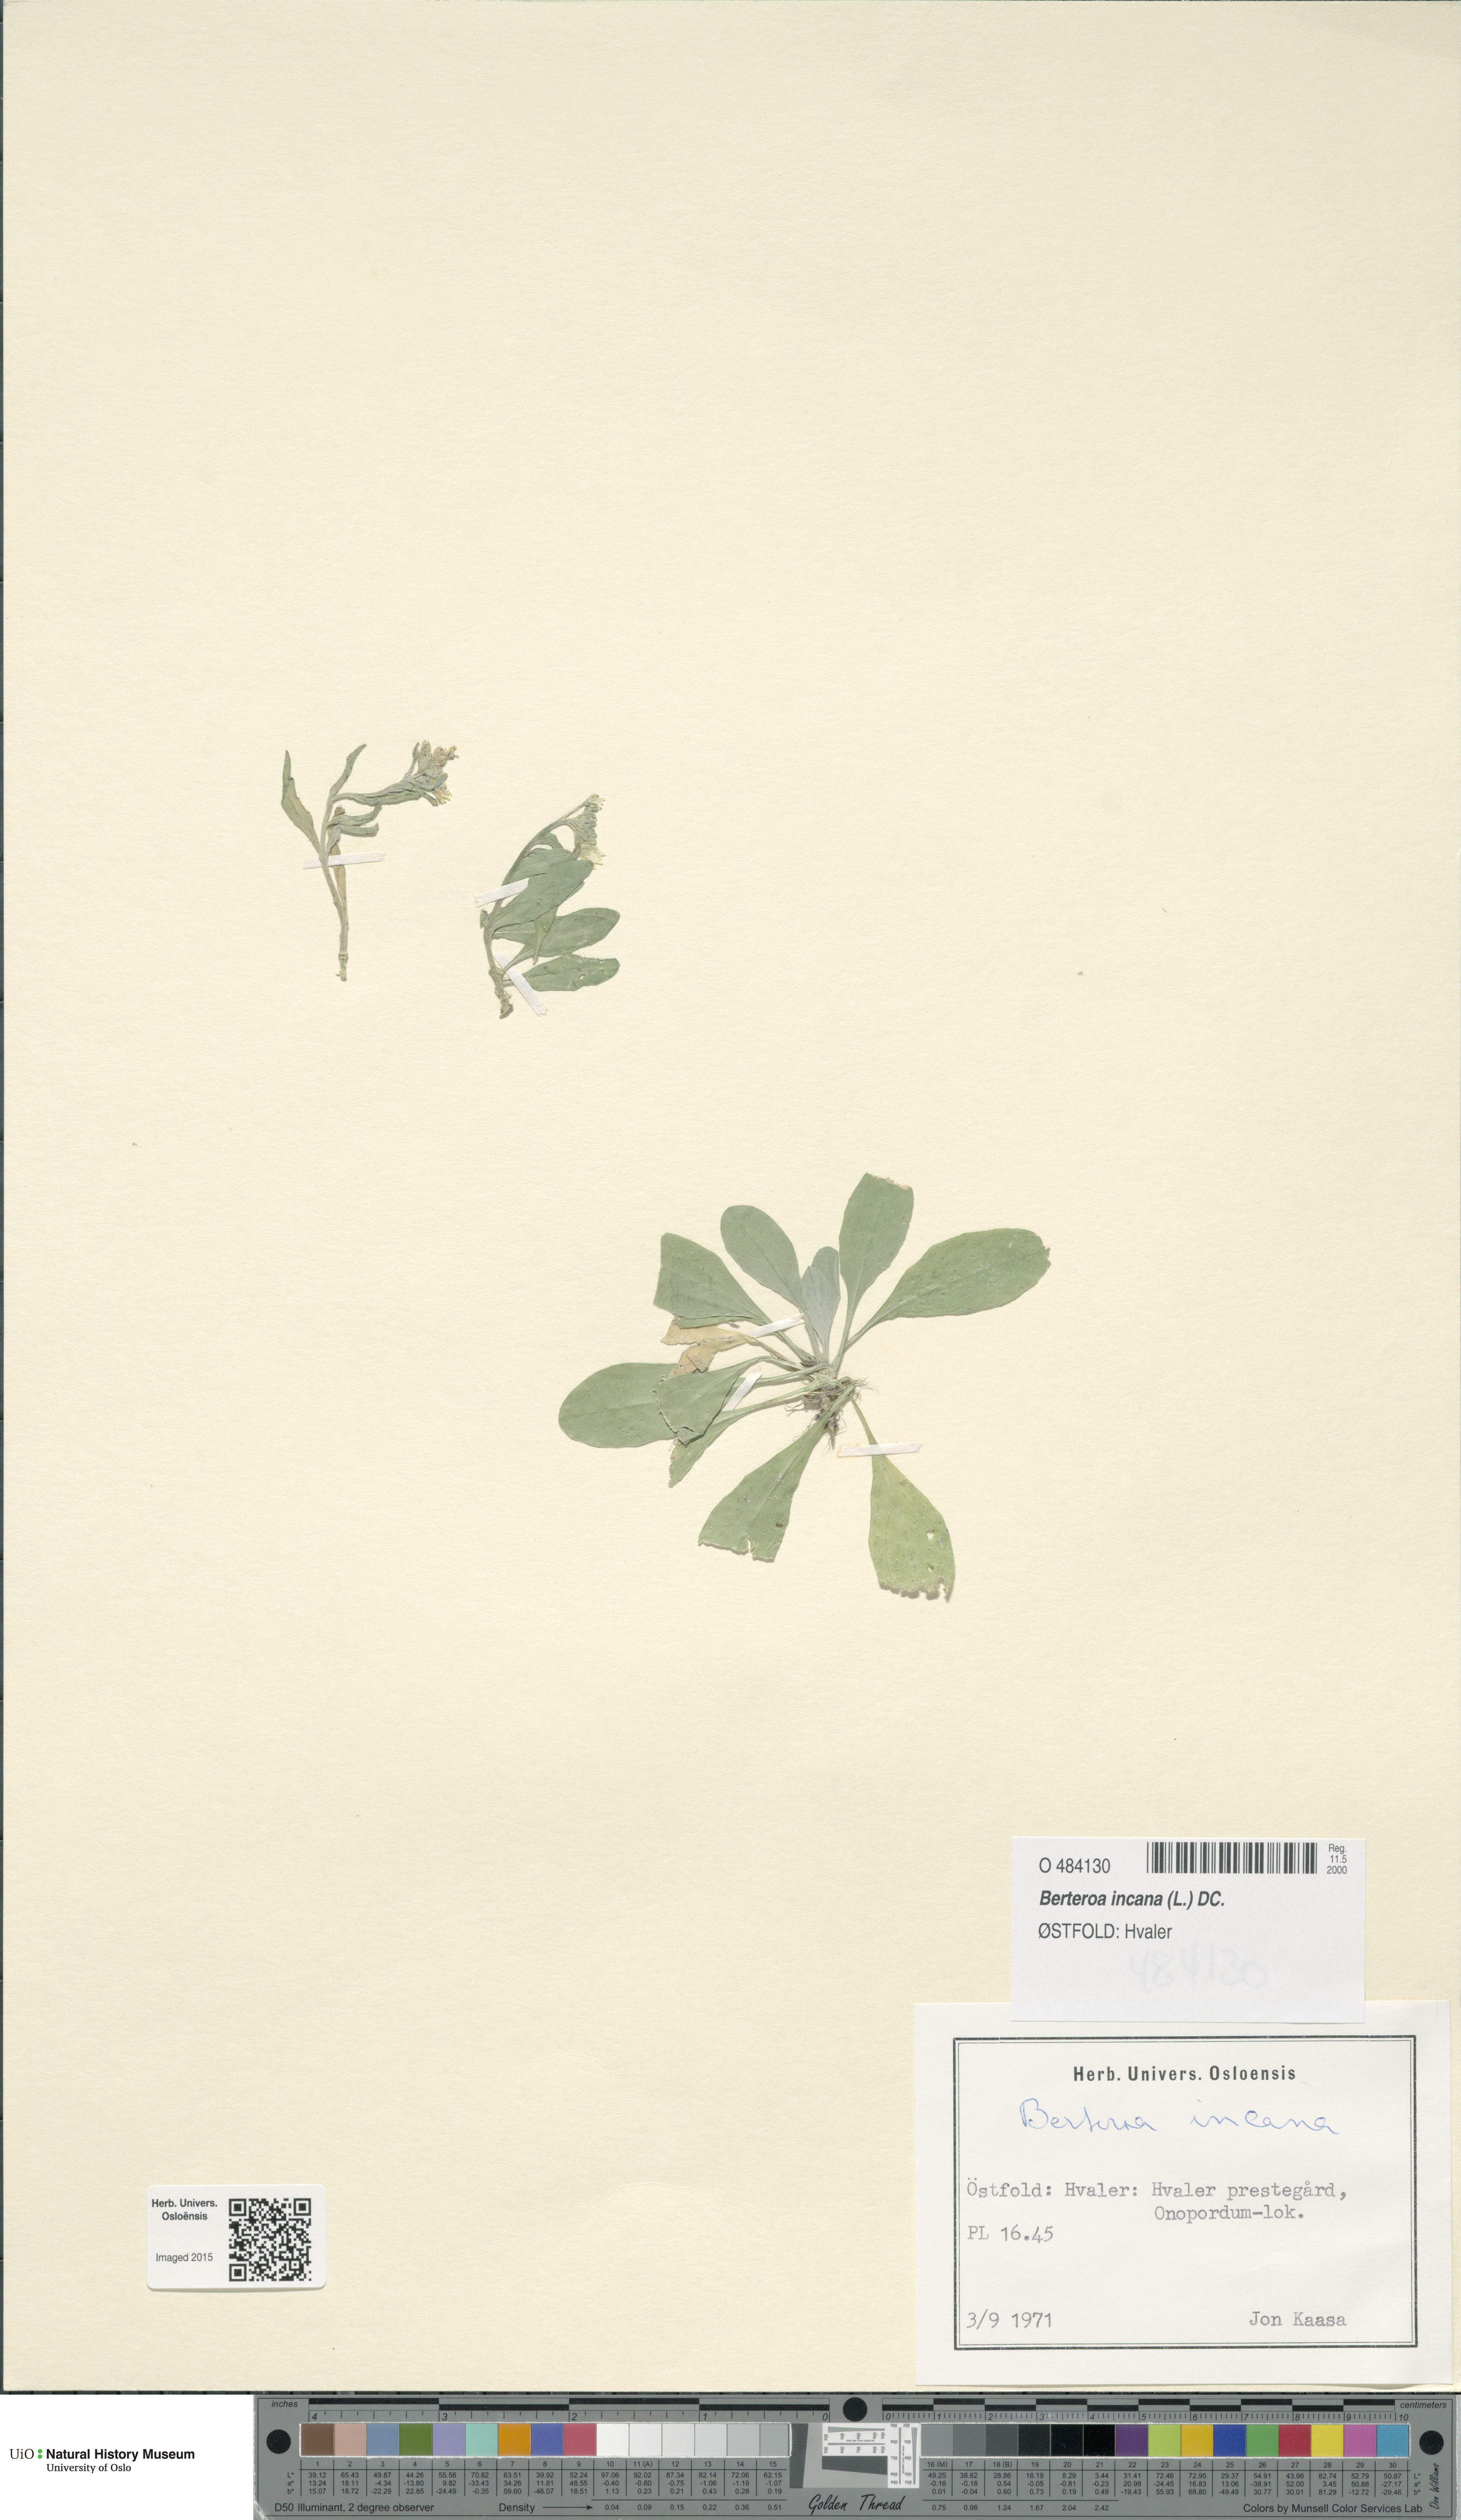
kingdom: Plantae
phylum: Tracheophyta
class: Magnoliopsida
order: Brassicales
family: Brassicaceae
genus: Berteroa
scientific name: Berteroa incana
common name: Hoary alison
